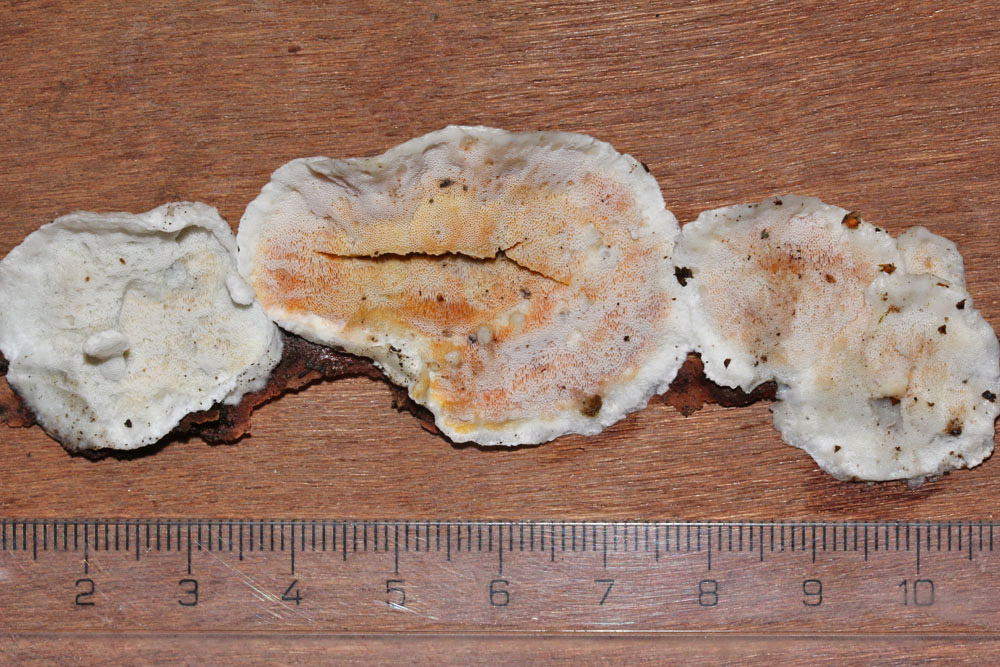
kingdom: Fungi
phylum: Basidiomycota
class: Agaricomycetes
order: Polyporales
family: Incrustoporiaceae
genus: Skeletocutis
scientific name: Skeletocutis amorpha
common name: orange krystalporesvamp
